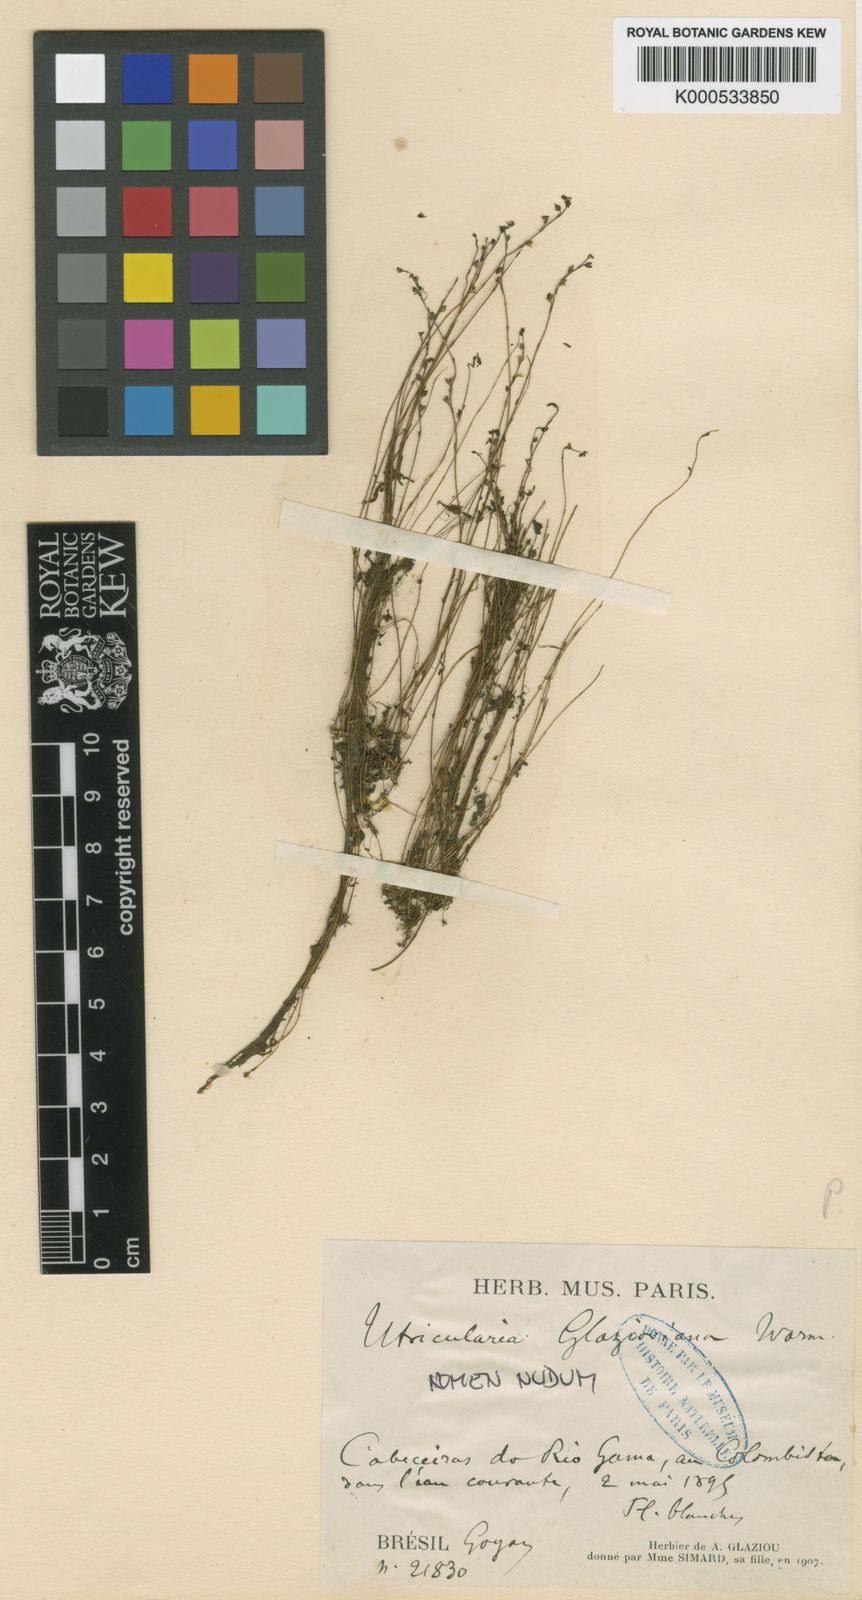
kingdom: Plantae
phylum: Tracheophyta
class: Magnoliopsida
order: Lamiales
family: Lentibulariaceae
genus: Utricularia
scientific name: Utricularia neottioides
